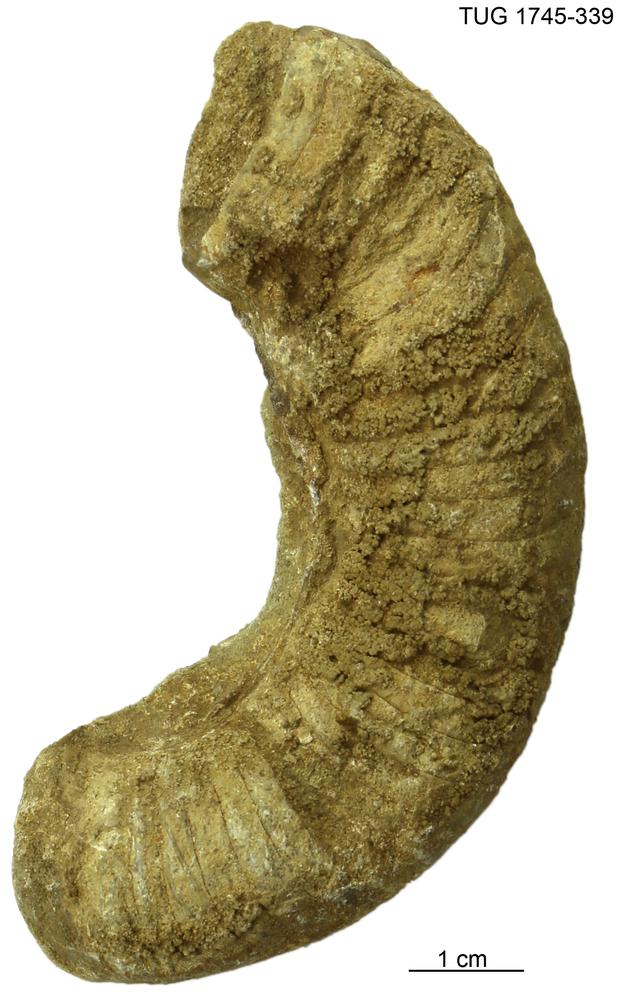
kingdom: Animalia
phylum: Mollusca
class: Cephalopoda
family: Trocholitidae
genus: Discoceras
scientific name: Discoceras
